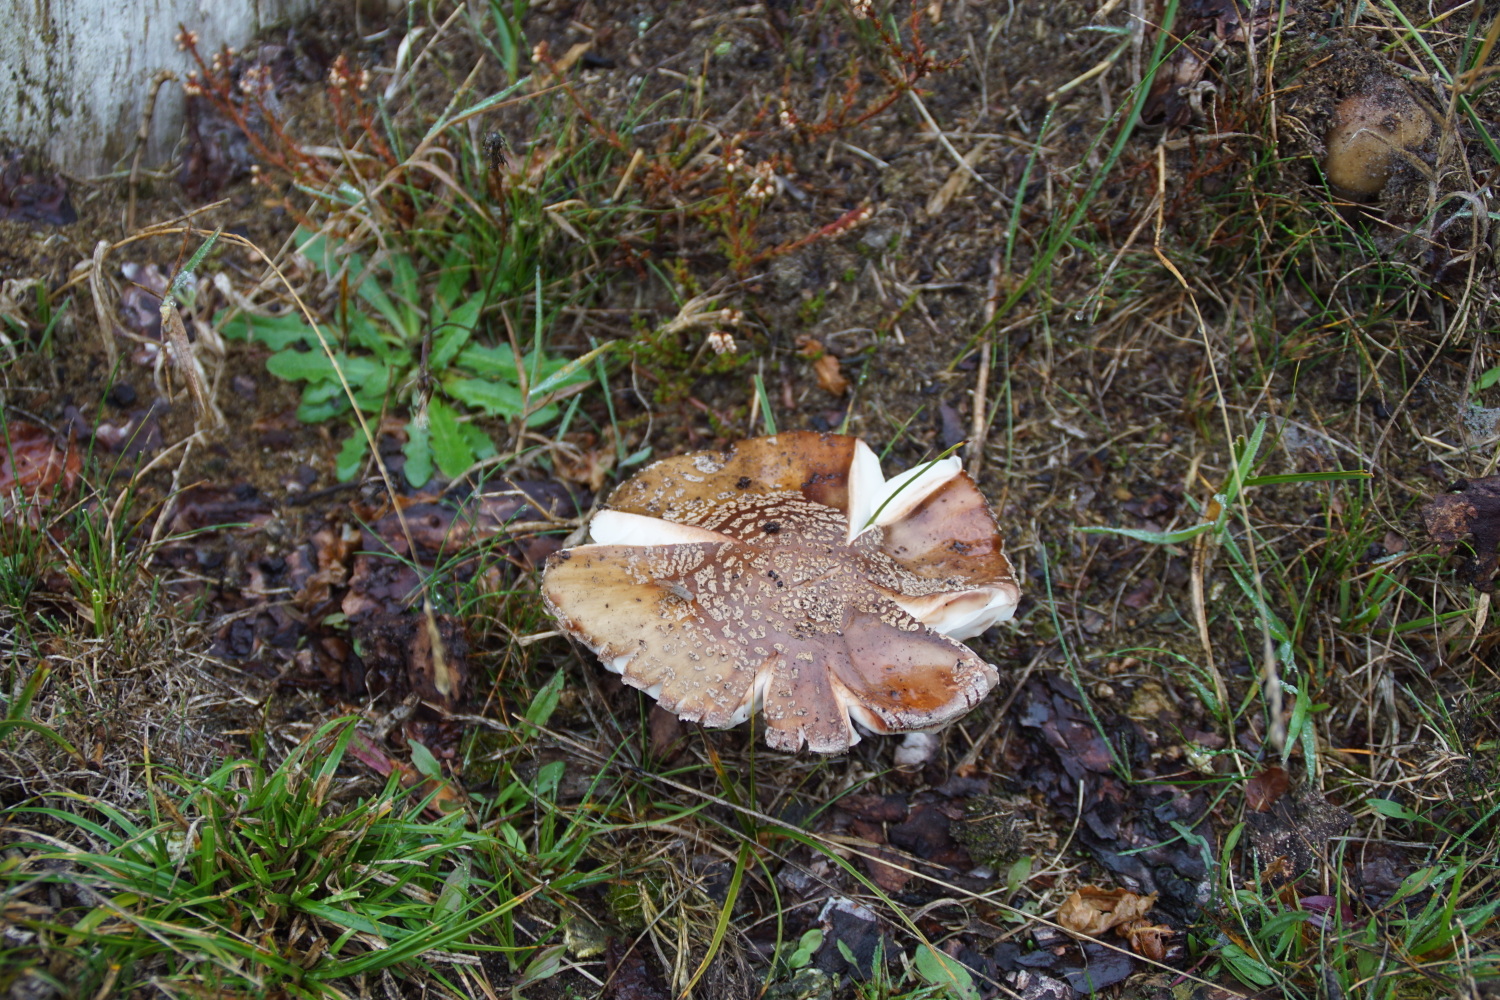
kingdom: Fungi
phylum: Basidiomycota
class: Agaricomycetes
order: Agaricales
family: Amanitaceae
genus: Amanita
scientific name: Amanita rubescens
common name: rødmende fluesvamp
